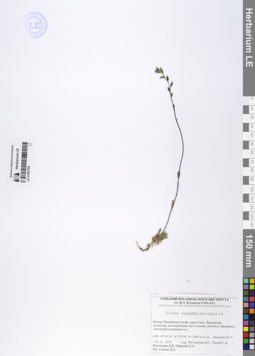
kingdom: Plantae
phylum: Tracheophyta
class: Magnoliopsida
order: Brassicales
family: Brassicaceae
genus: Draba
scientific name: Draba subamplexicaulis
